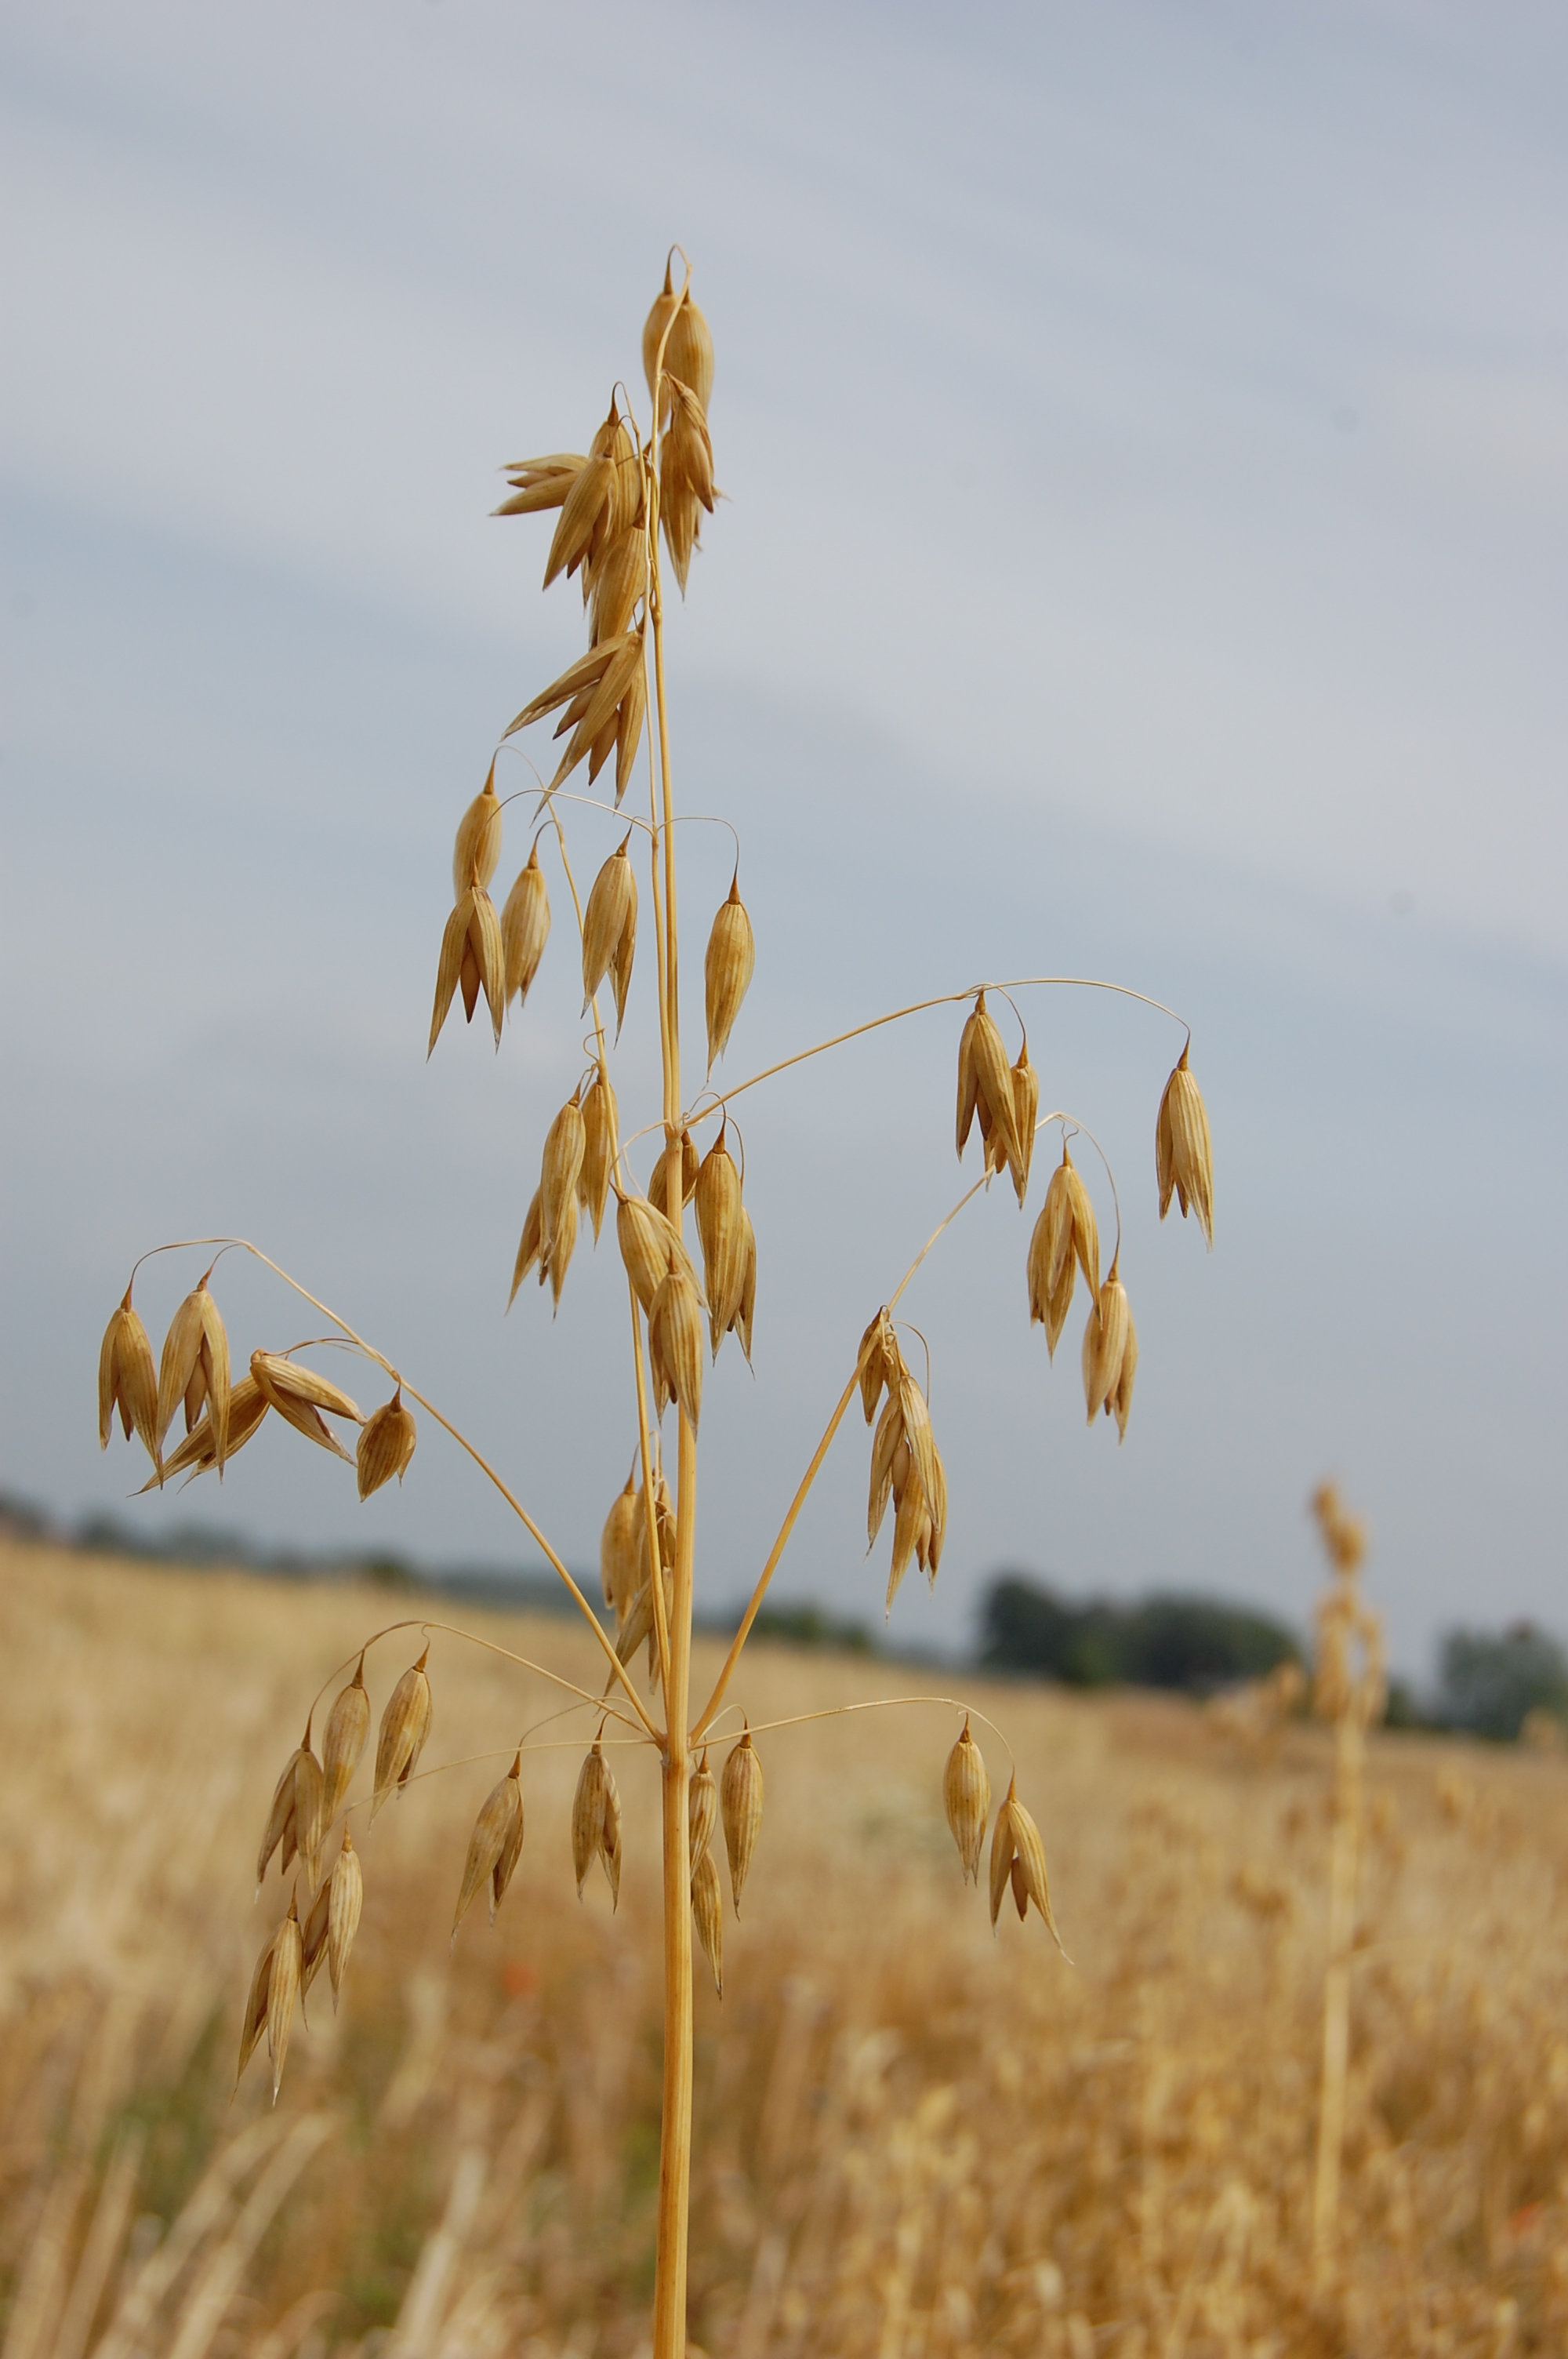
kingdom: Plantae
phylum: Tracheophyta
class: Liliopsida
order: Poales
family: Poaceae
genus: Avena
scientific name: Avena sativa
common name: Oat
